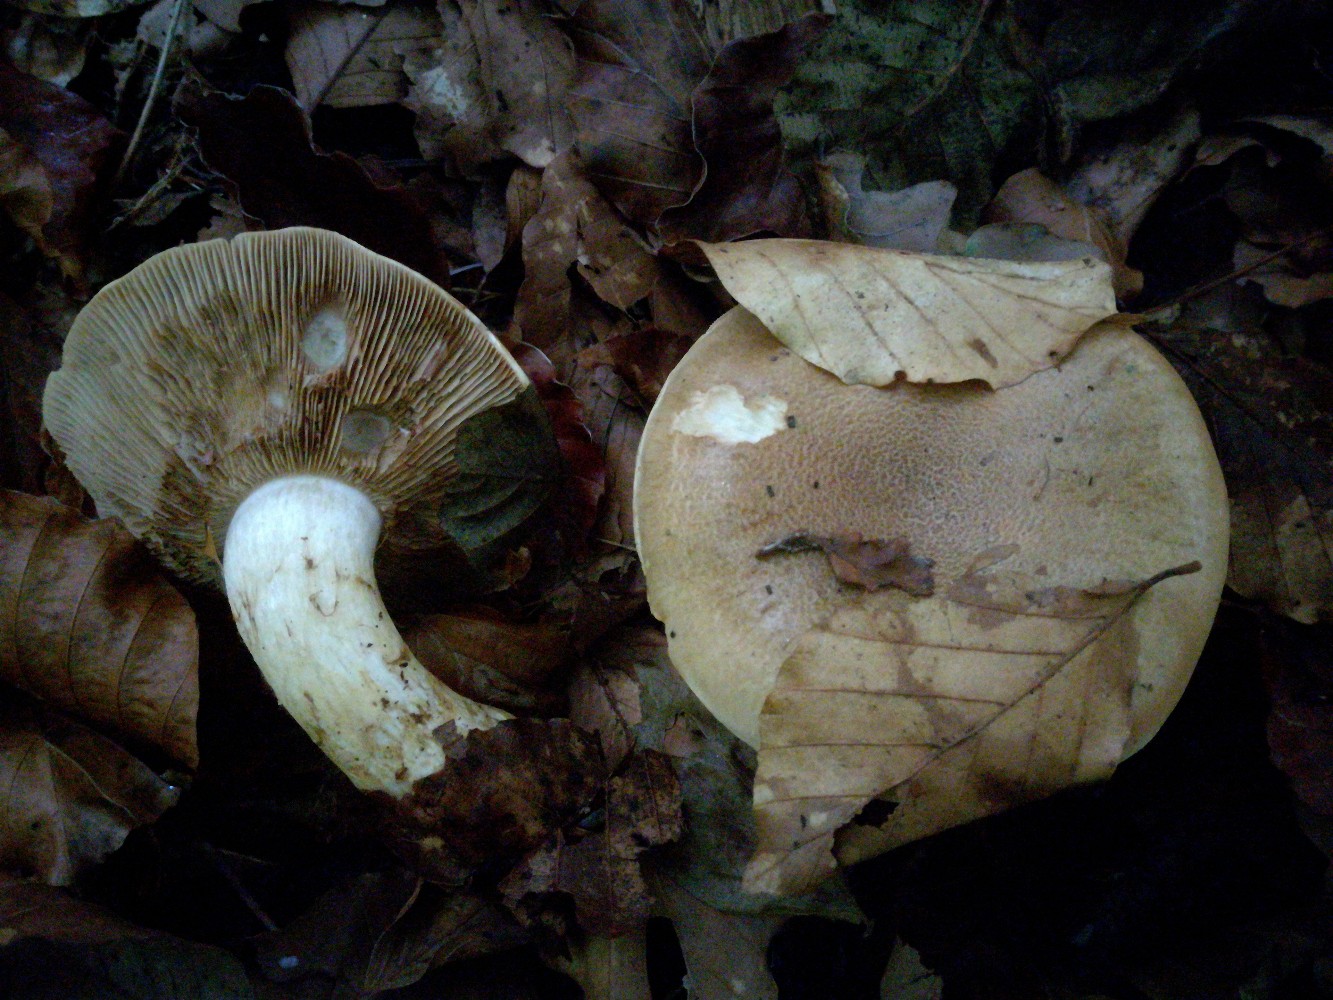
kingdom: Fungi
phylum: Basidiomycota
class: Agaricomycetes
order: Agaricales
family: Cortinariaceae
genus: Phlegmacium
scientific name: Phlegmacium cliduchus
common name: majs-slørhat
